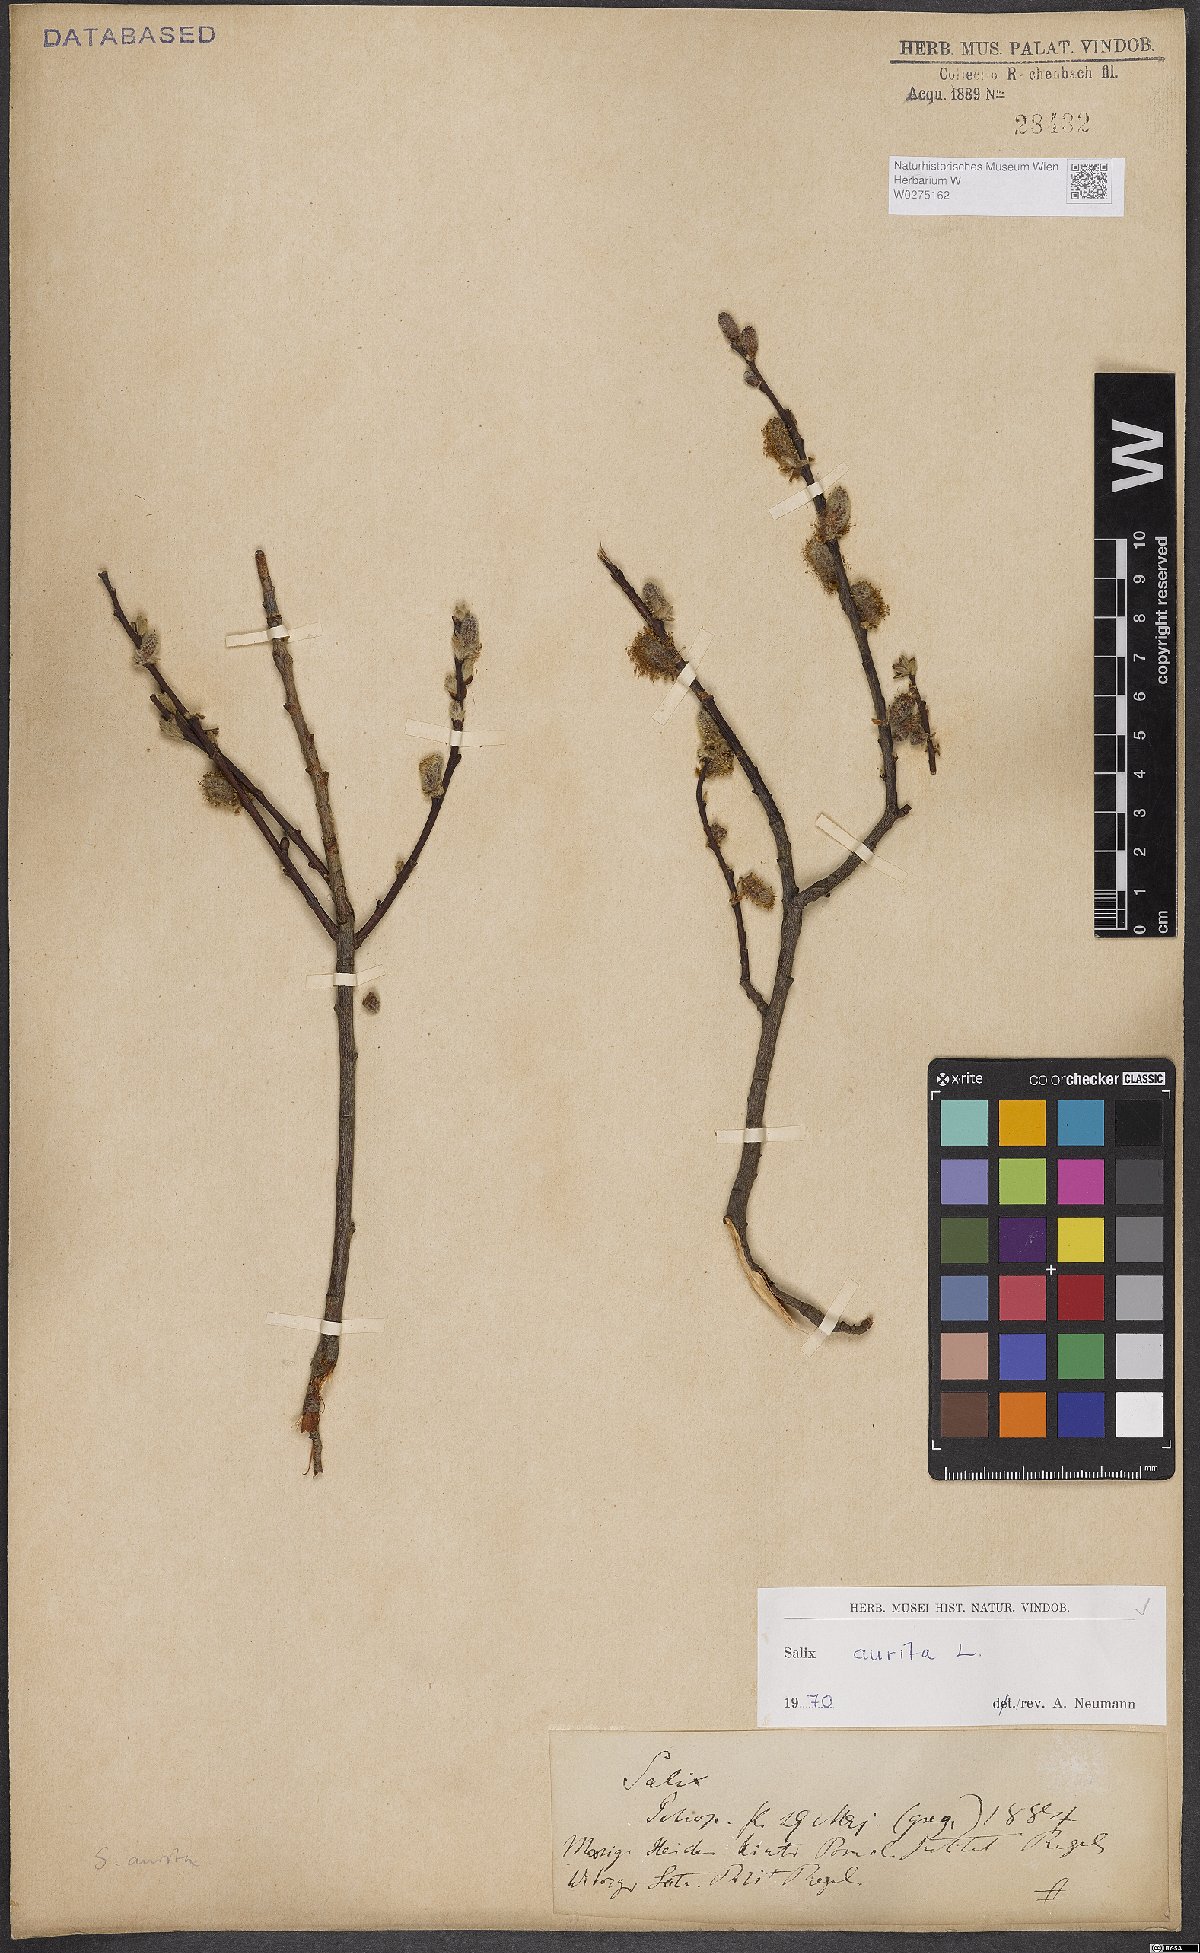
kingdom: Plantae
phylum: Tracheophyta
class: Magnoliopsida
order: Malpighiales
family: Salicaceae
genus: Salix
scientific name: Salix aurita
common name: Eared willow
